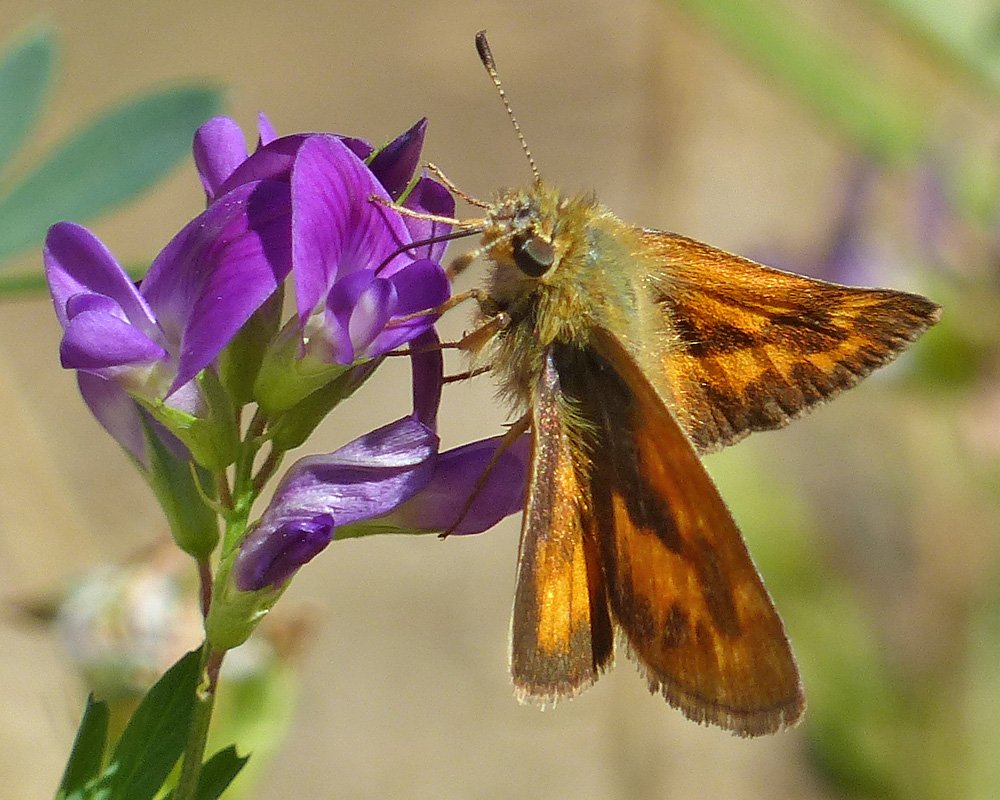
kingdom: Animalia
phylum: Arthropoda
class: Insecta
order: Lepidoptera
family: Hesperiidae
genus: Ochlodes
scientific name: Ochlodes sylvanoides
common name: Woodland Skipper
